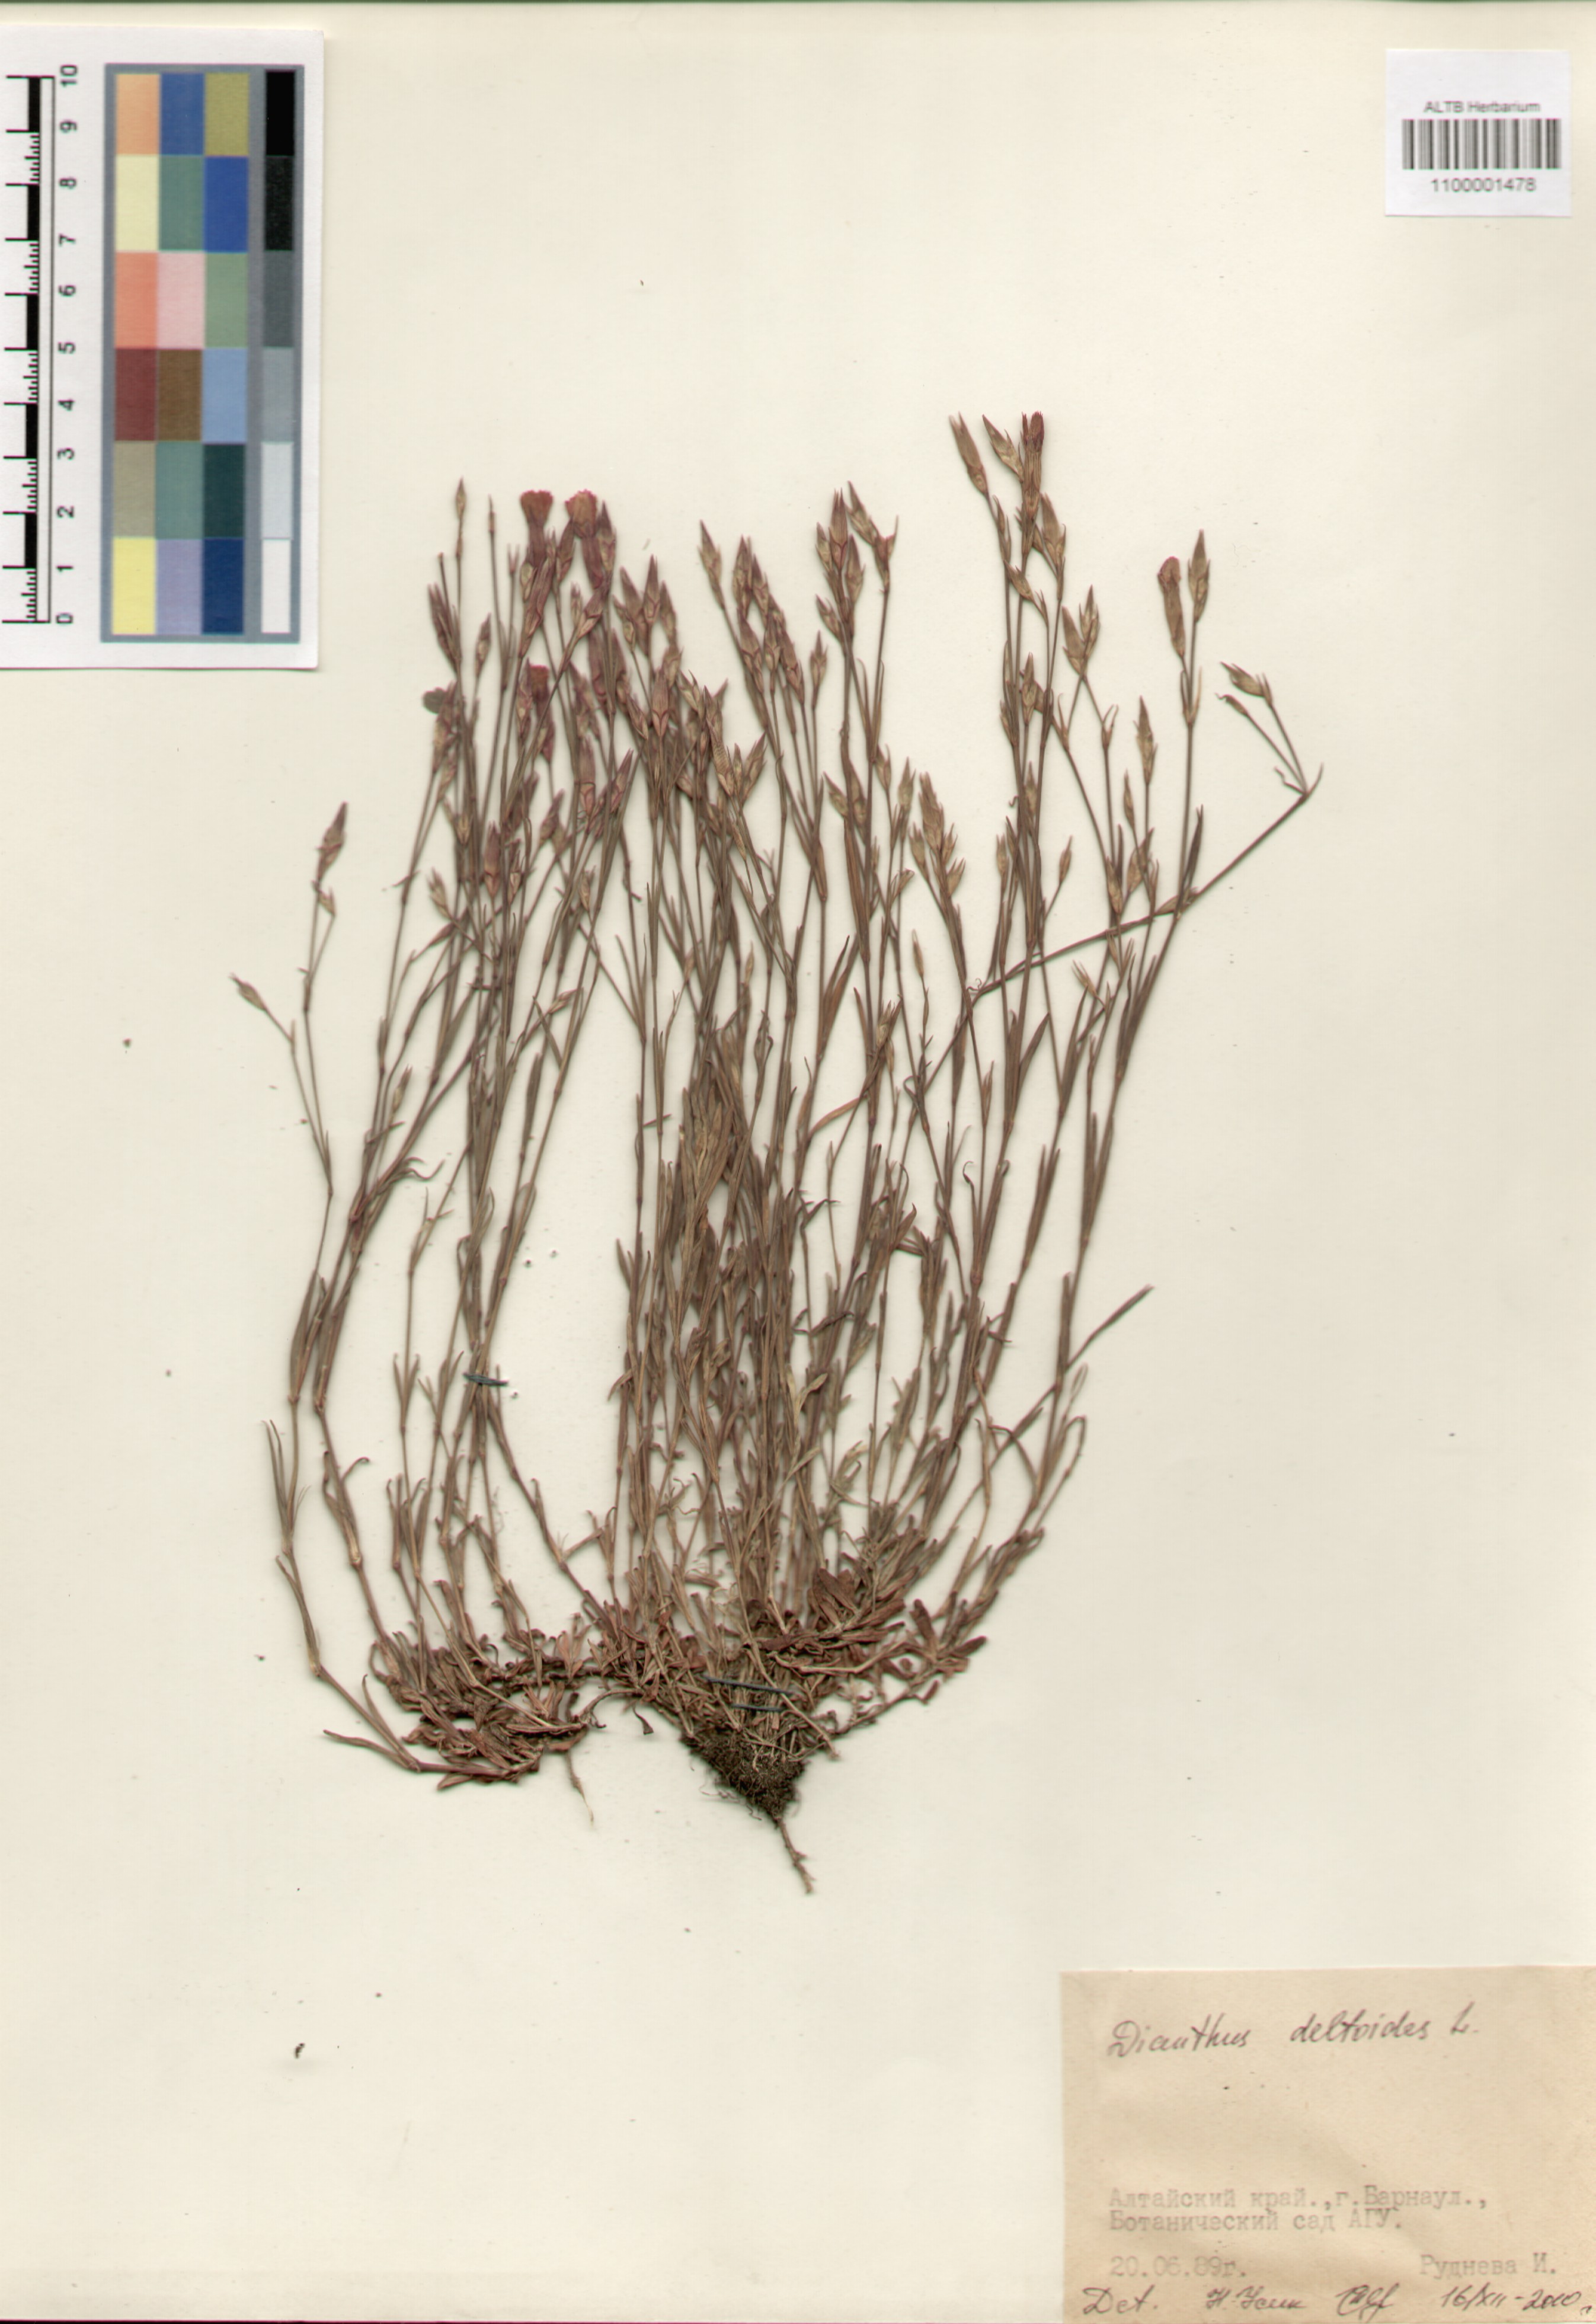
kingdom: Plantae
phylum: Tracheophyta
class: Magnoliopsida
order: Caryophyllales
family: Caryophyllaceae
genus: Dianthus
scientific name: Dianthus deltoides
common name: Maiden pink
